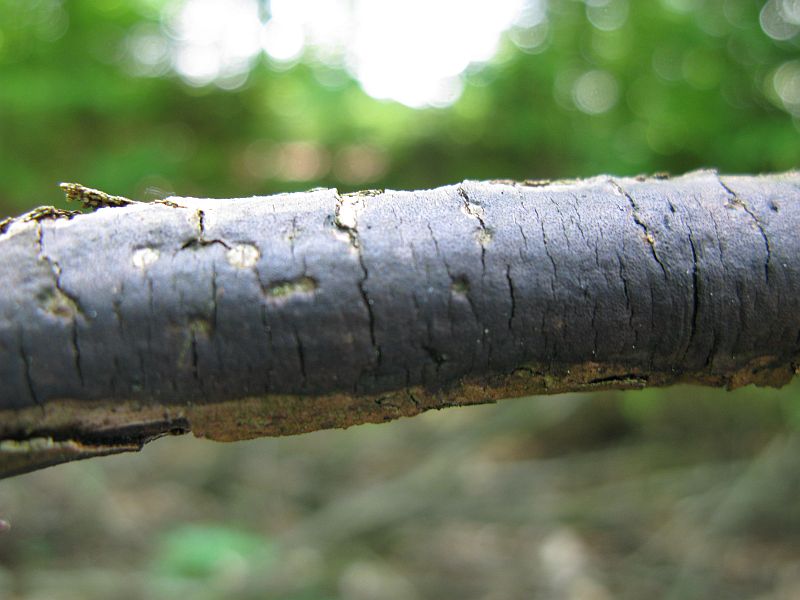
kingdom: Fungi
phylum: Ascomycota
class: Sordariomycetes
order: Xylariales
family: Diatrypaceae
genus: Diatrype
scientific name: Diatrype decorticata
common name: barksprænger-kulskorpe
